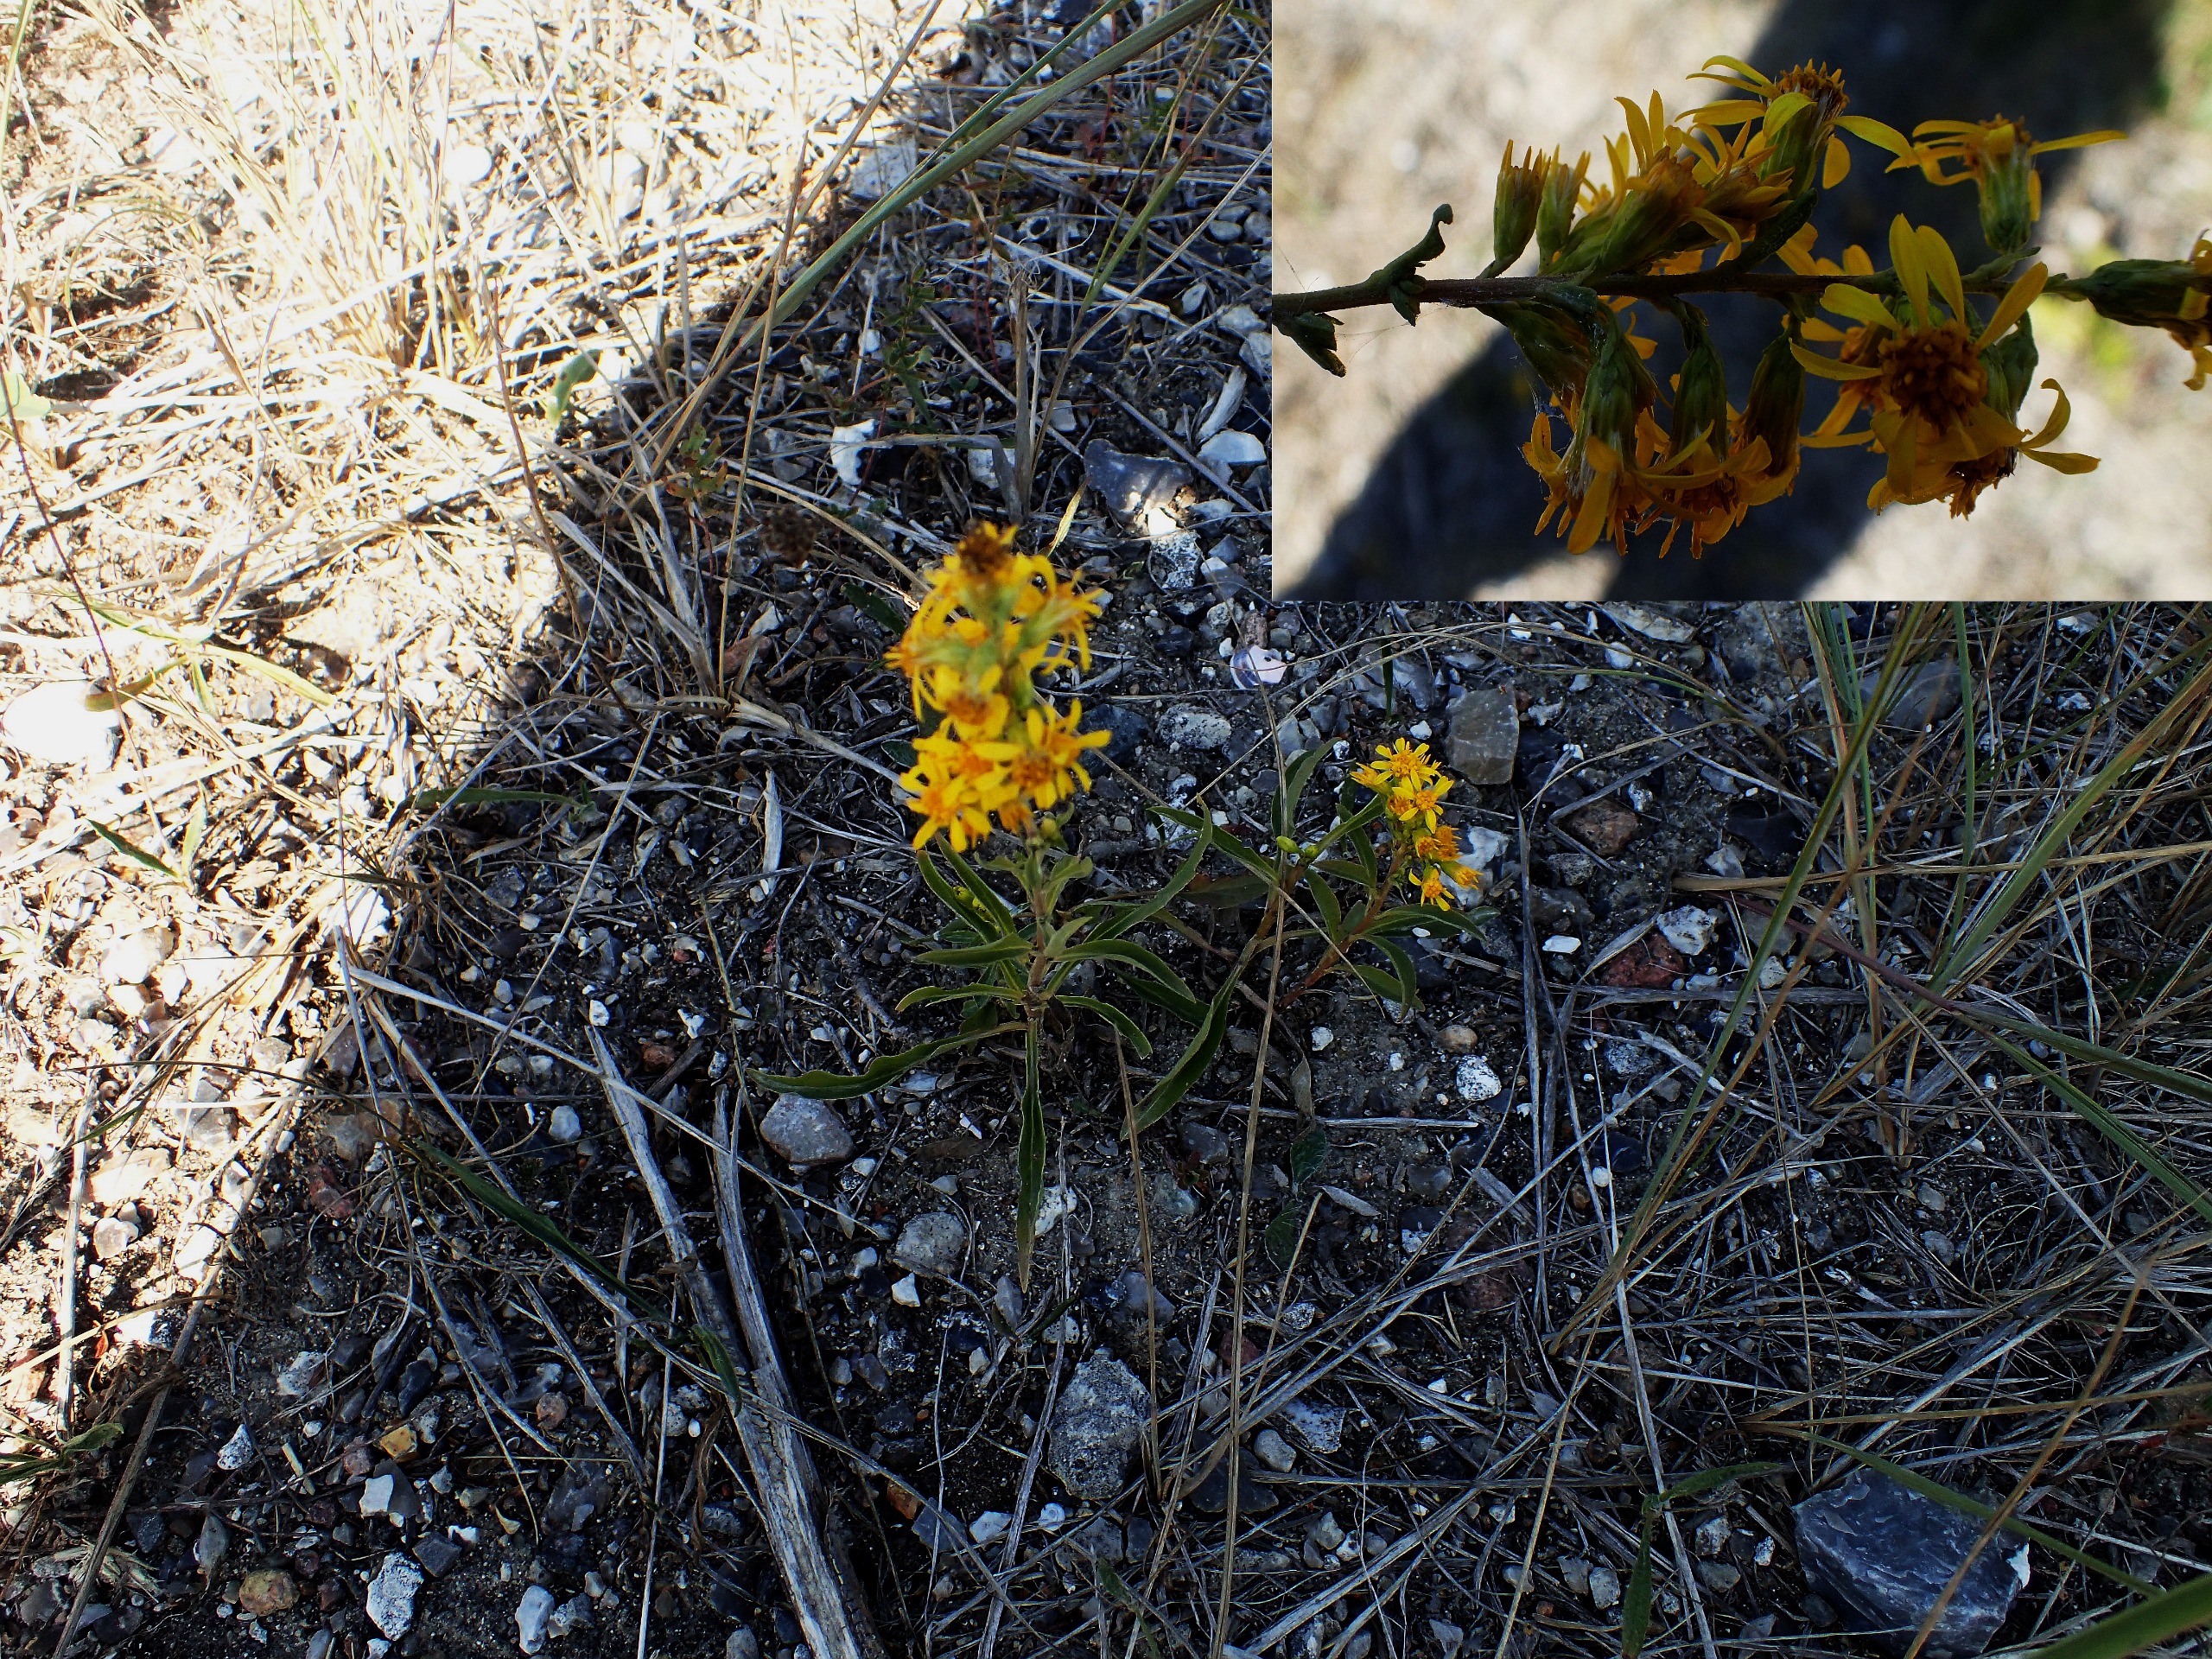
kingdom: Plantae
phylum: Tracheophyta
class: Magnoliopsida
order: Asterales
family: Asteraceae
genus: Solidago
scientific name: Solidago virgaurea
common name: Almindelig gyldenris
